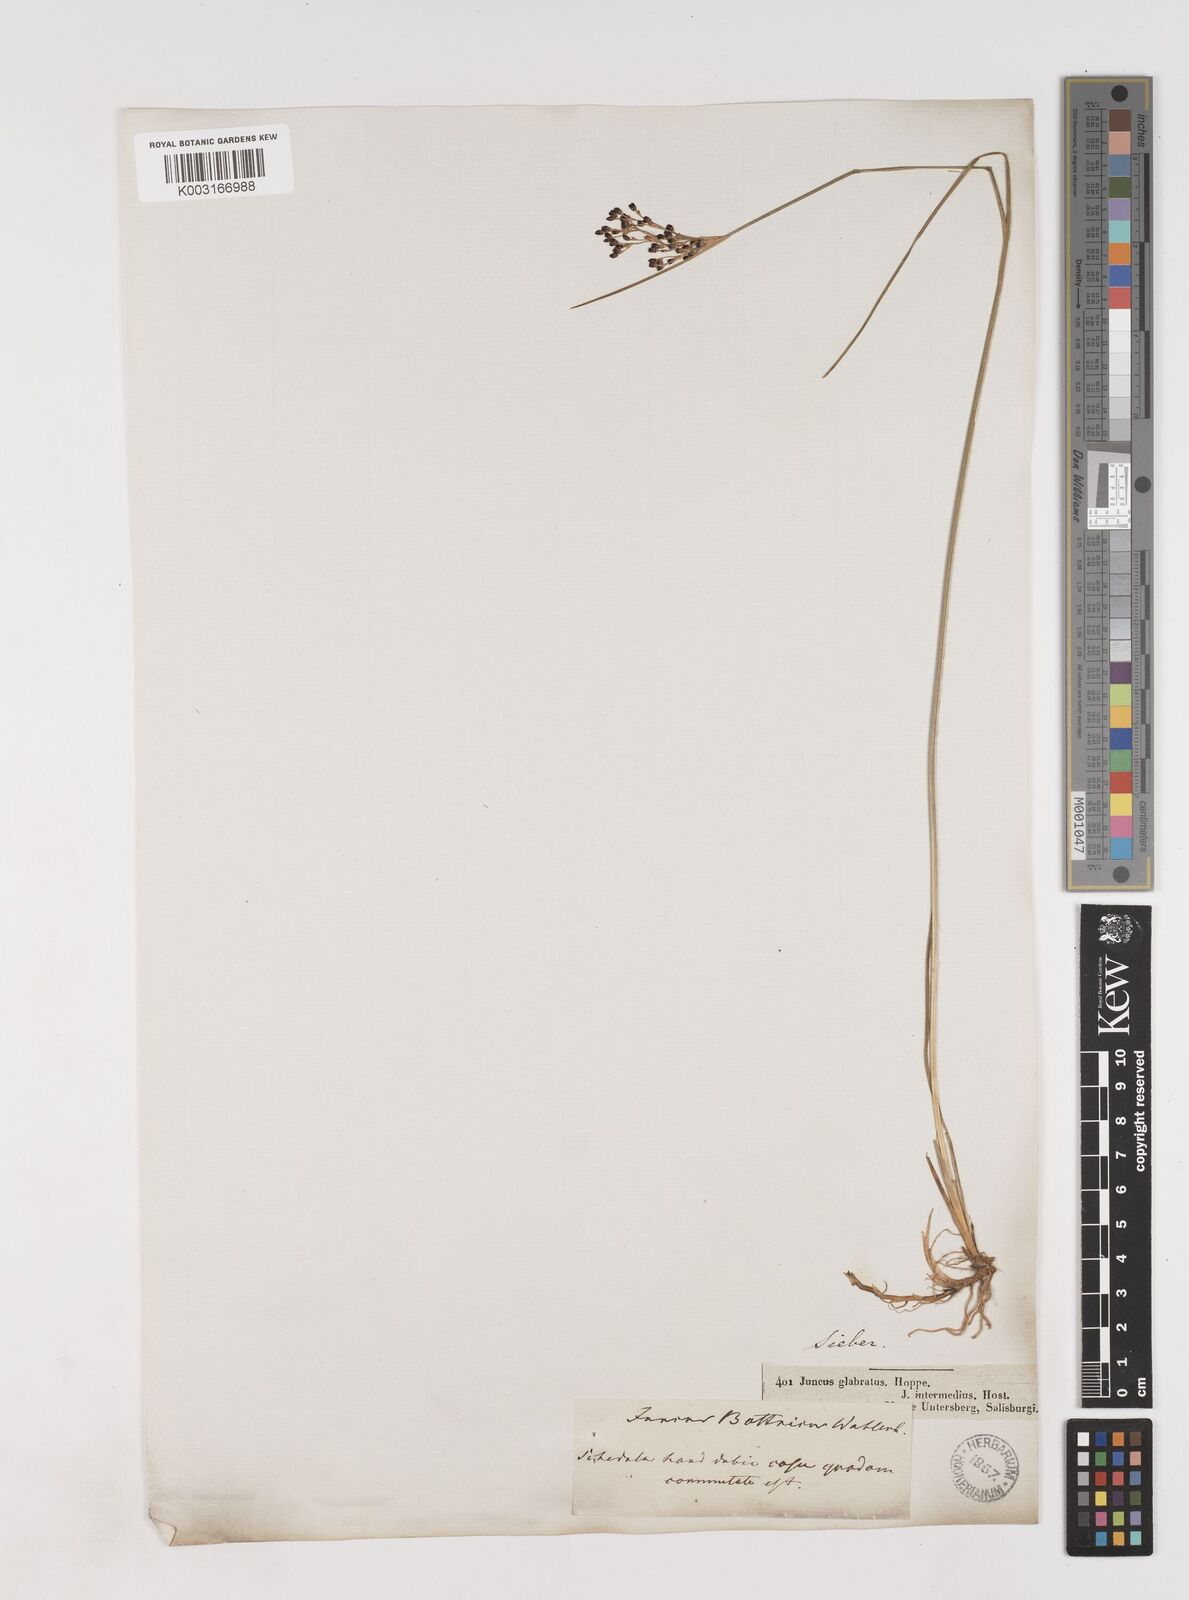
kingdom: Plantae
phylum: Tracheophyta
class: Liliopsida
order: Poales
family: Juncaceae
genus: Juncus
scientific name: Juncus gerardi
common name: Saltmarsh rush
